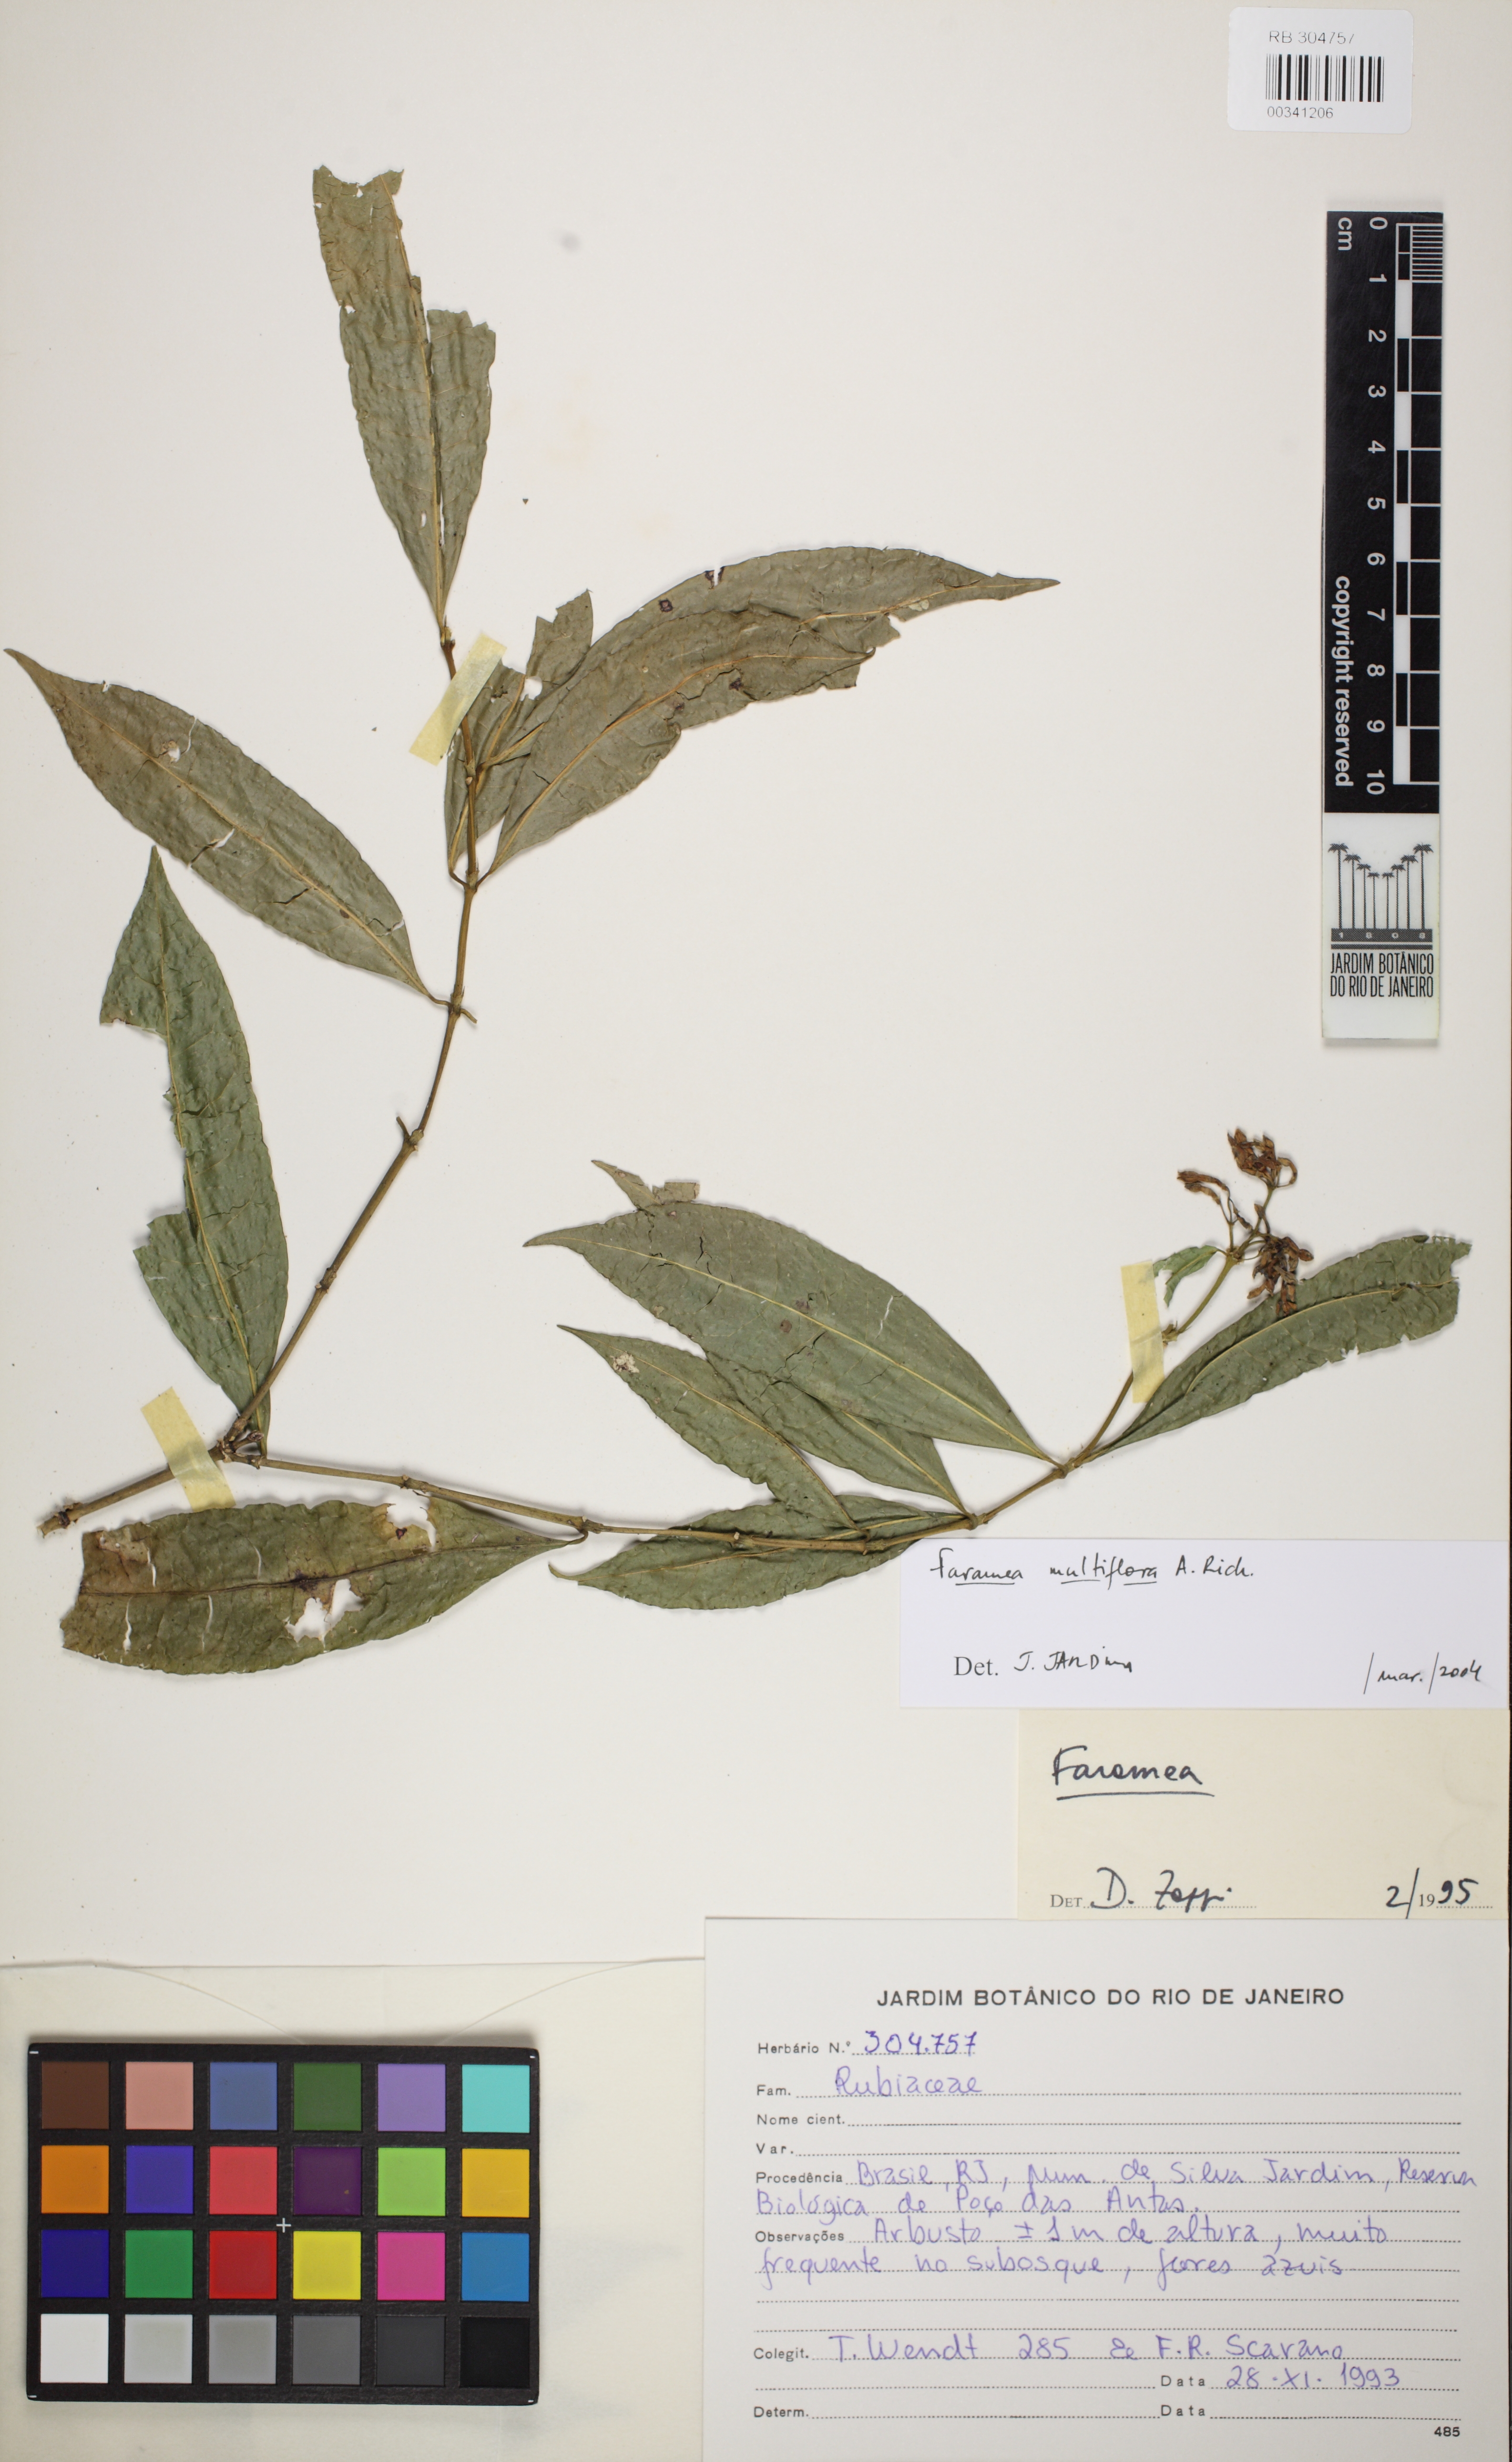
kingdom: Plantae
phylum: Tracheophyta
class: Magnoliopsida
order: Gentianales
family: Rubiaceae
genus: Faramea
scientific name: Faramea multiflora
